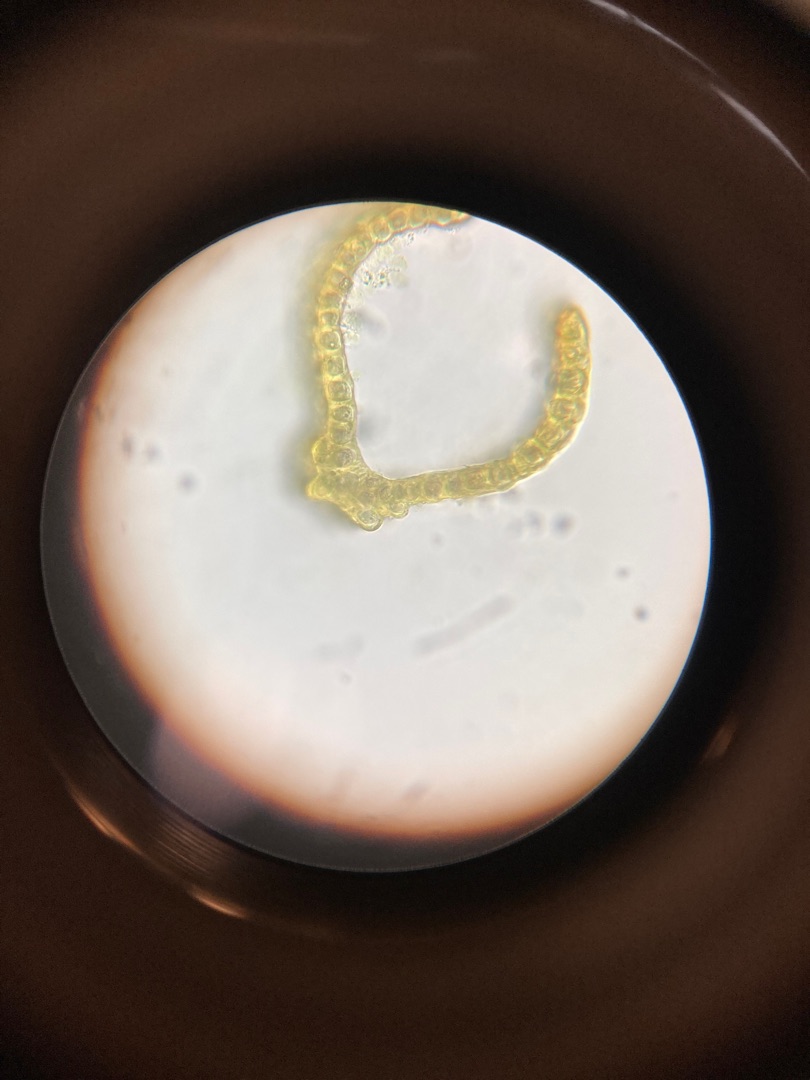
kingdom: Plantae
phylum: Bryophyta
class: Bryopsida
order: Dicranales
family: Dicranaceae
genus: Dicranum
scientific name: Dicranum scoparium
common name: Almindelig kløvtand
